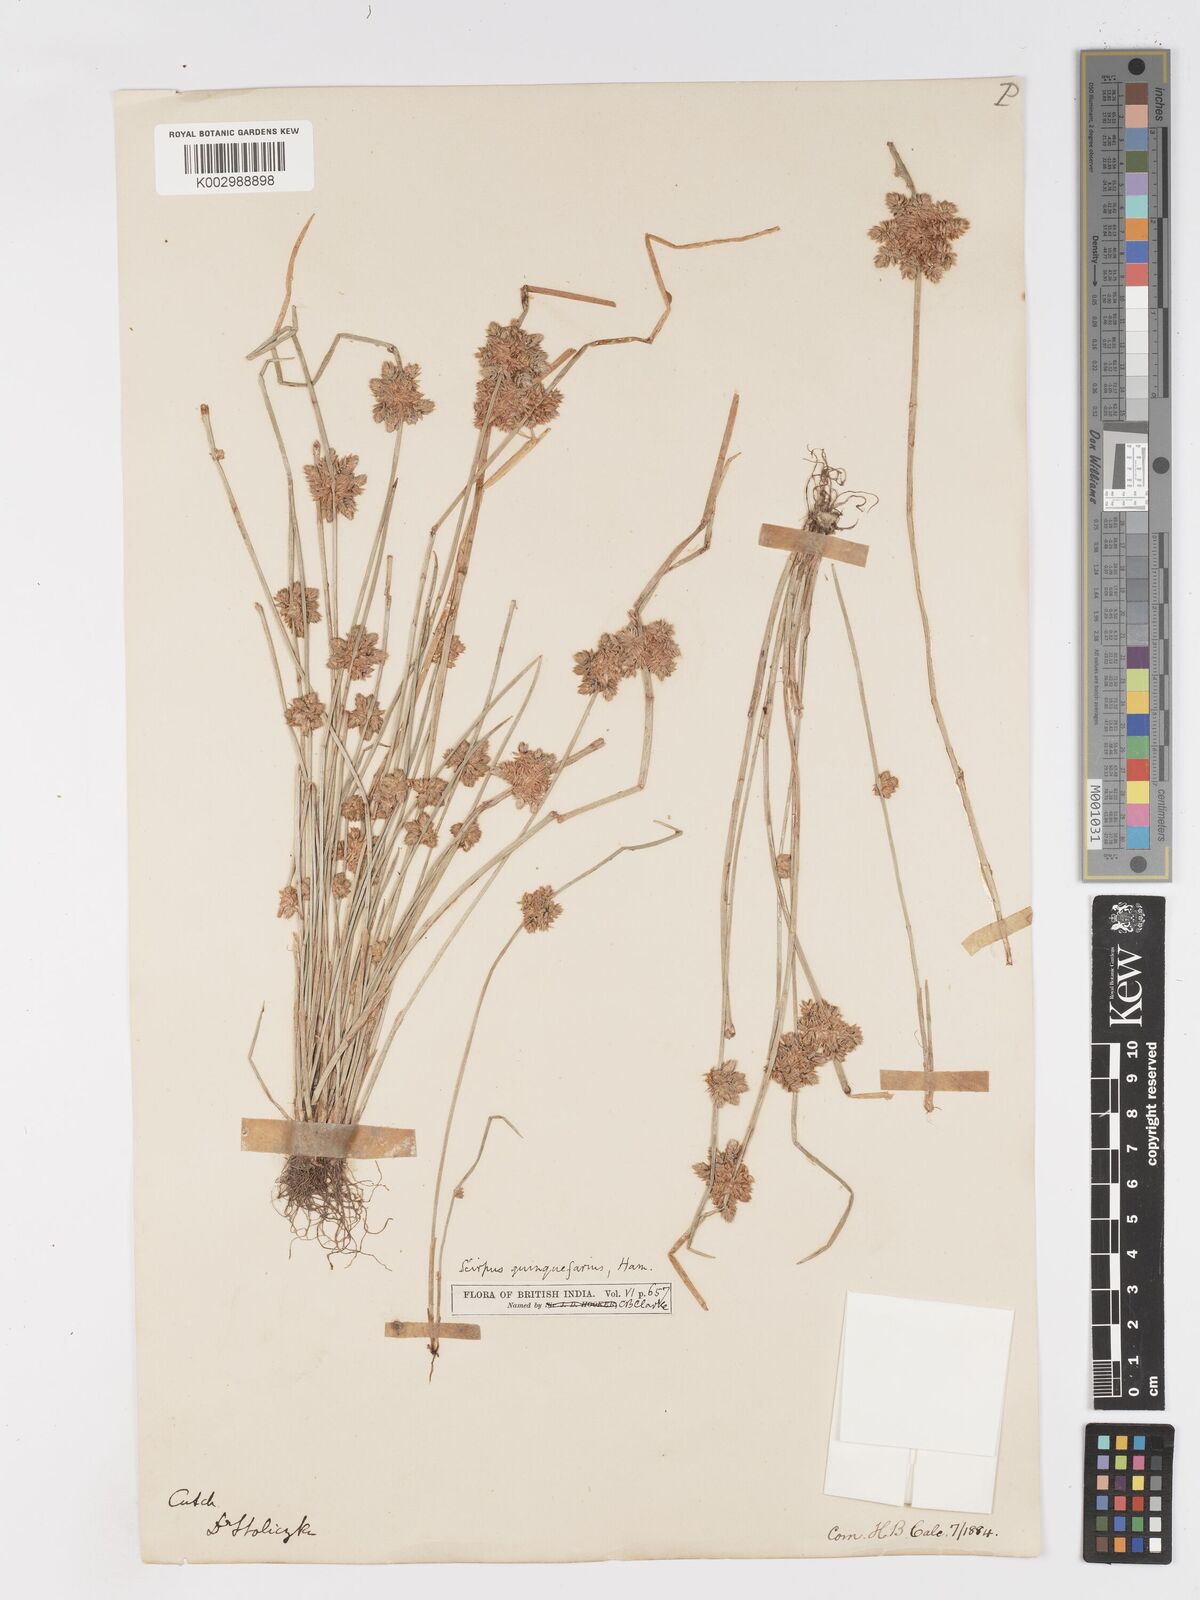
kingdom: Plantae
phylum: Tracheophyta
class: Liliopsida
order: Poales
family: Cyperaceae
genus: Schoenoplectiella
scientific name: Schoenoplectiella roylei
